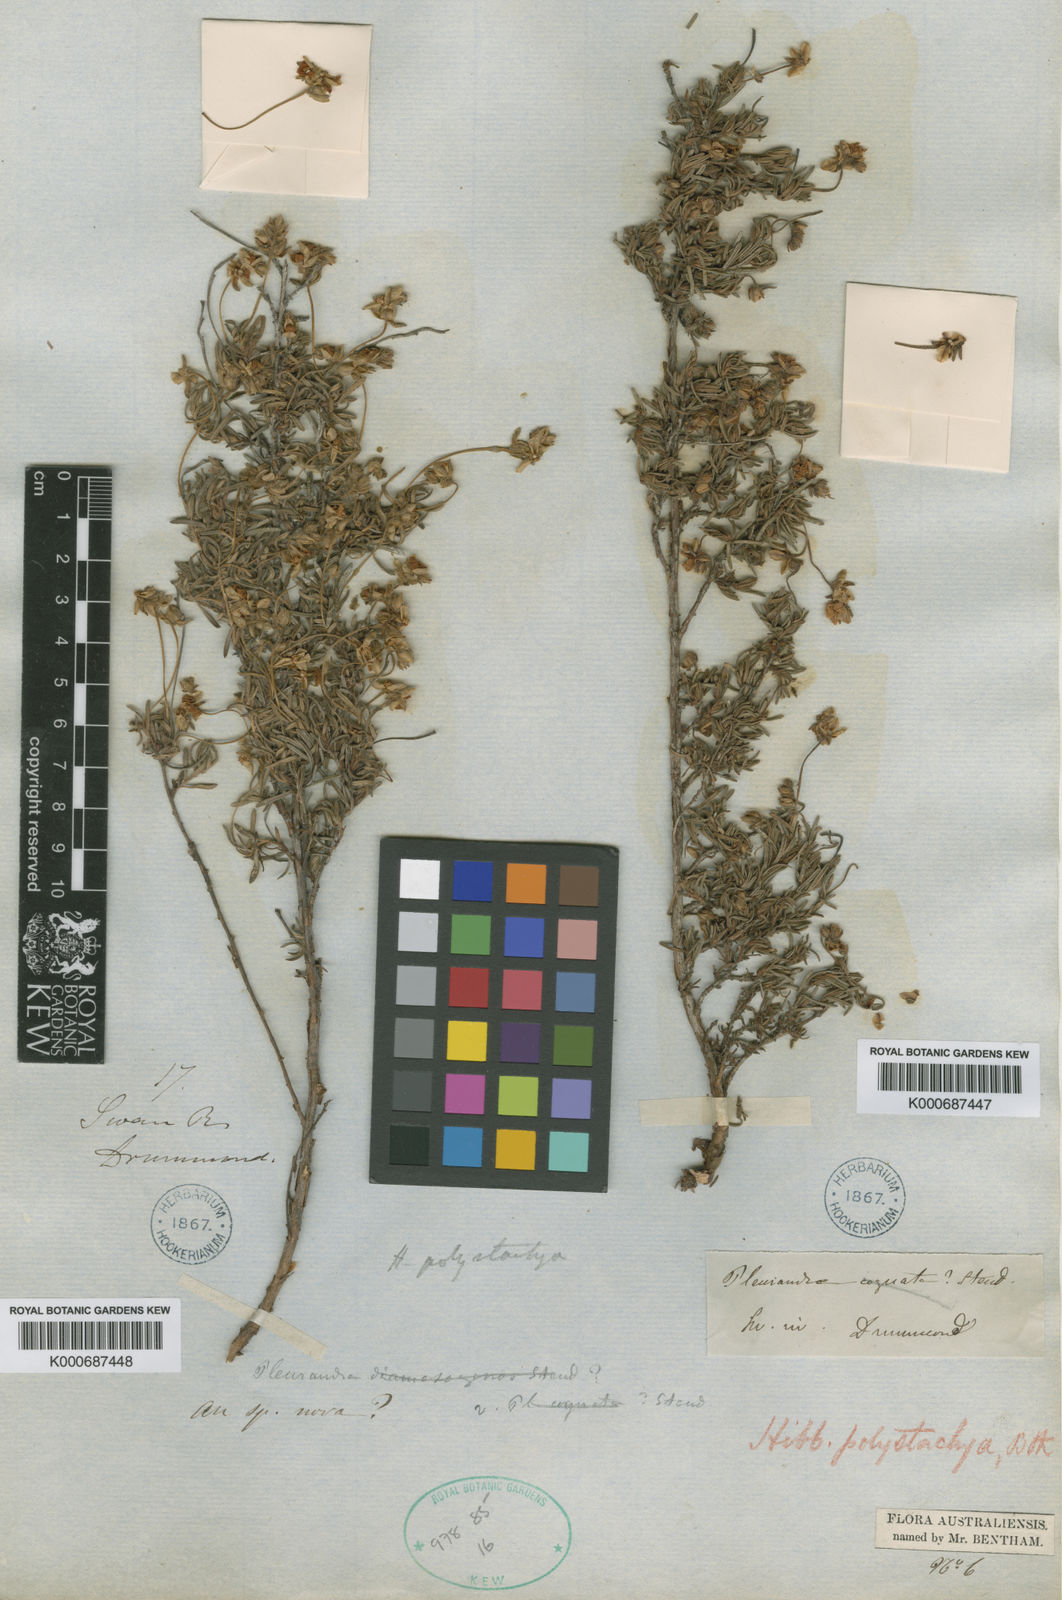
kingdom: Plantae
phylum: Tracheophyta
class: Magnoliopsida
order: Dilleniales
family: Dilleniaceae
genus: Hibbertia
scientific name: Hibbertia polystachya
